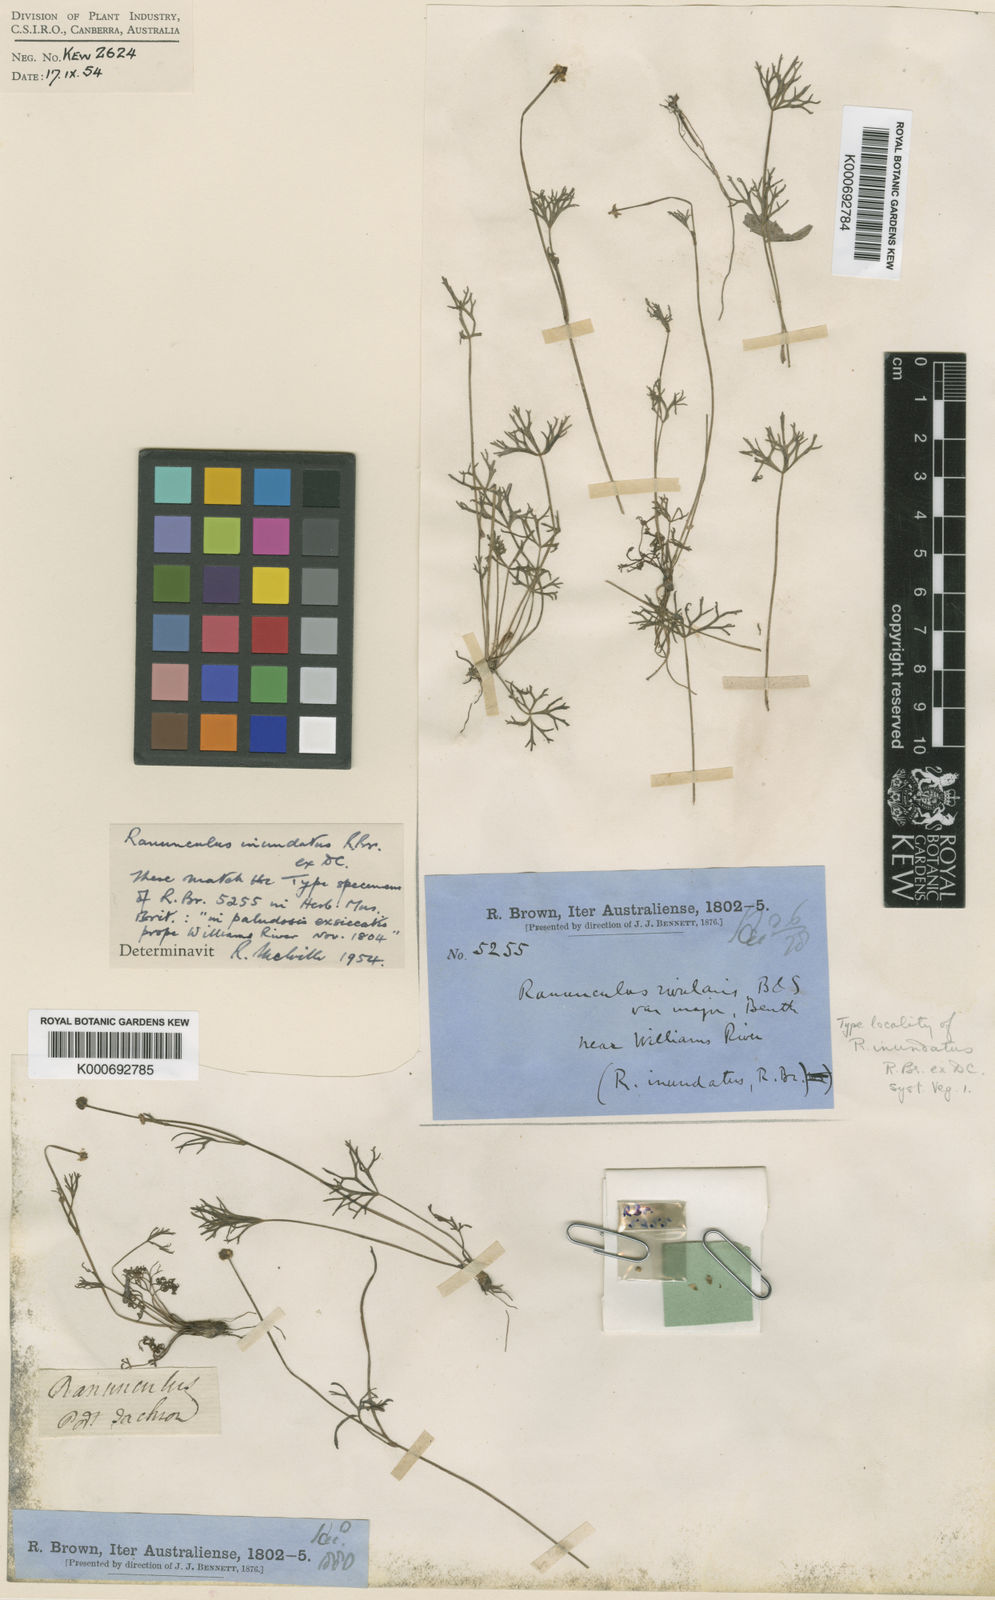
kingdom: Plantae
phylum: Tracheophyta
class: Magnoliopsida
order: Ranunculales
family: Ranunculaceae
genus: Ranunculus
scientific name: Ranunculus inundatus
